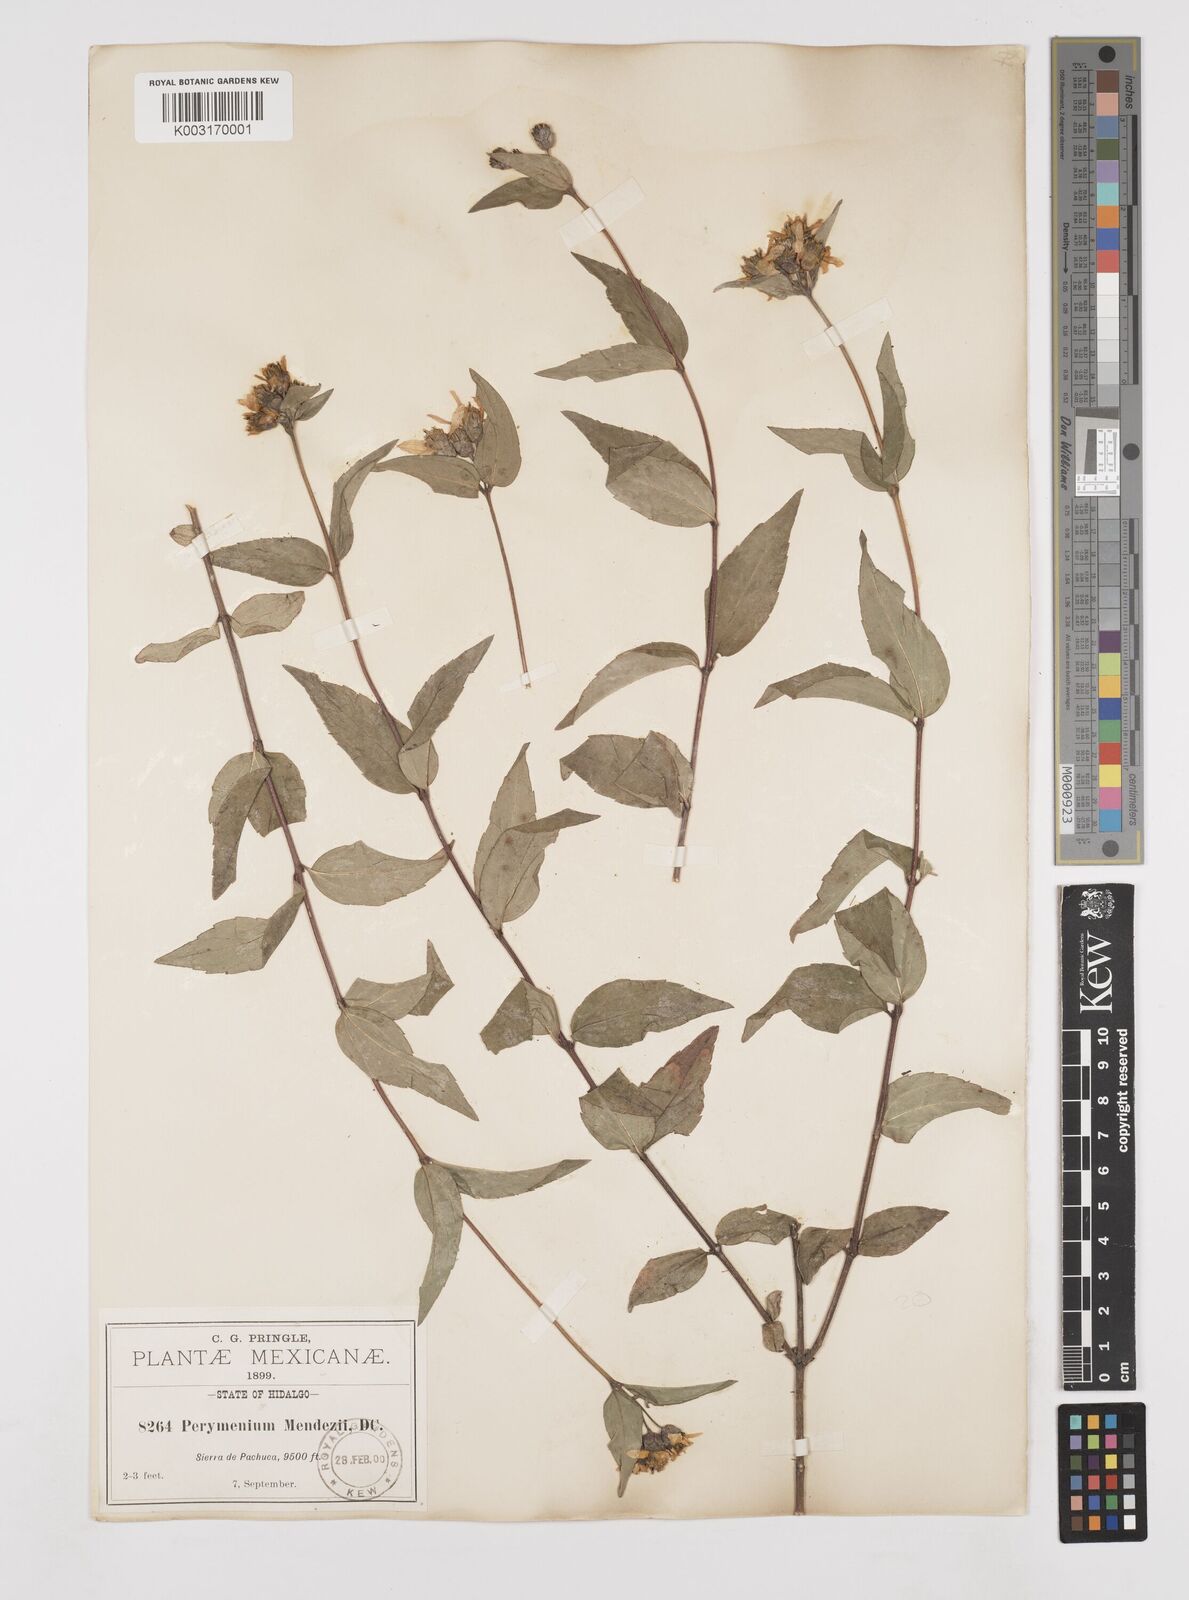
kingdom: Plantae
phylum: Tracheophyta
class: Magnoliopsida
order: Asterales
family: Asteraceae
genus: Perymenium
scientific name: Perymenium berlandieri
